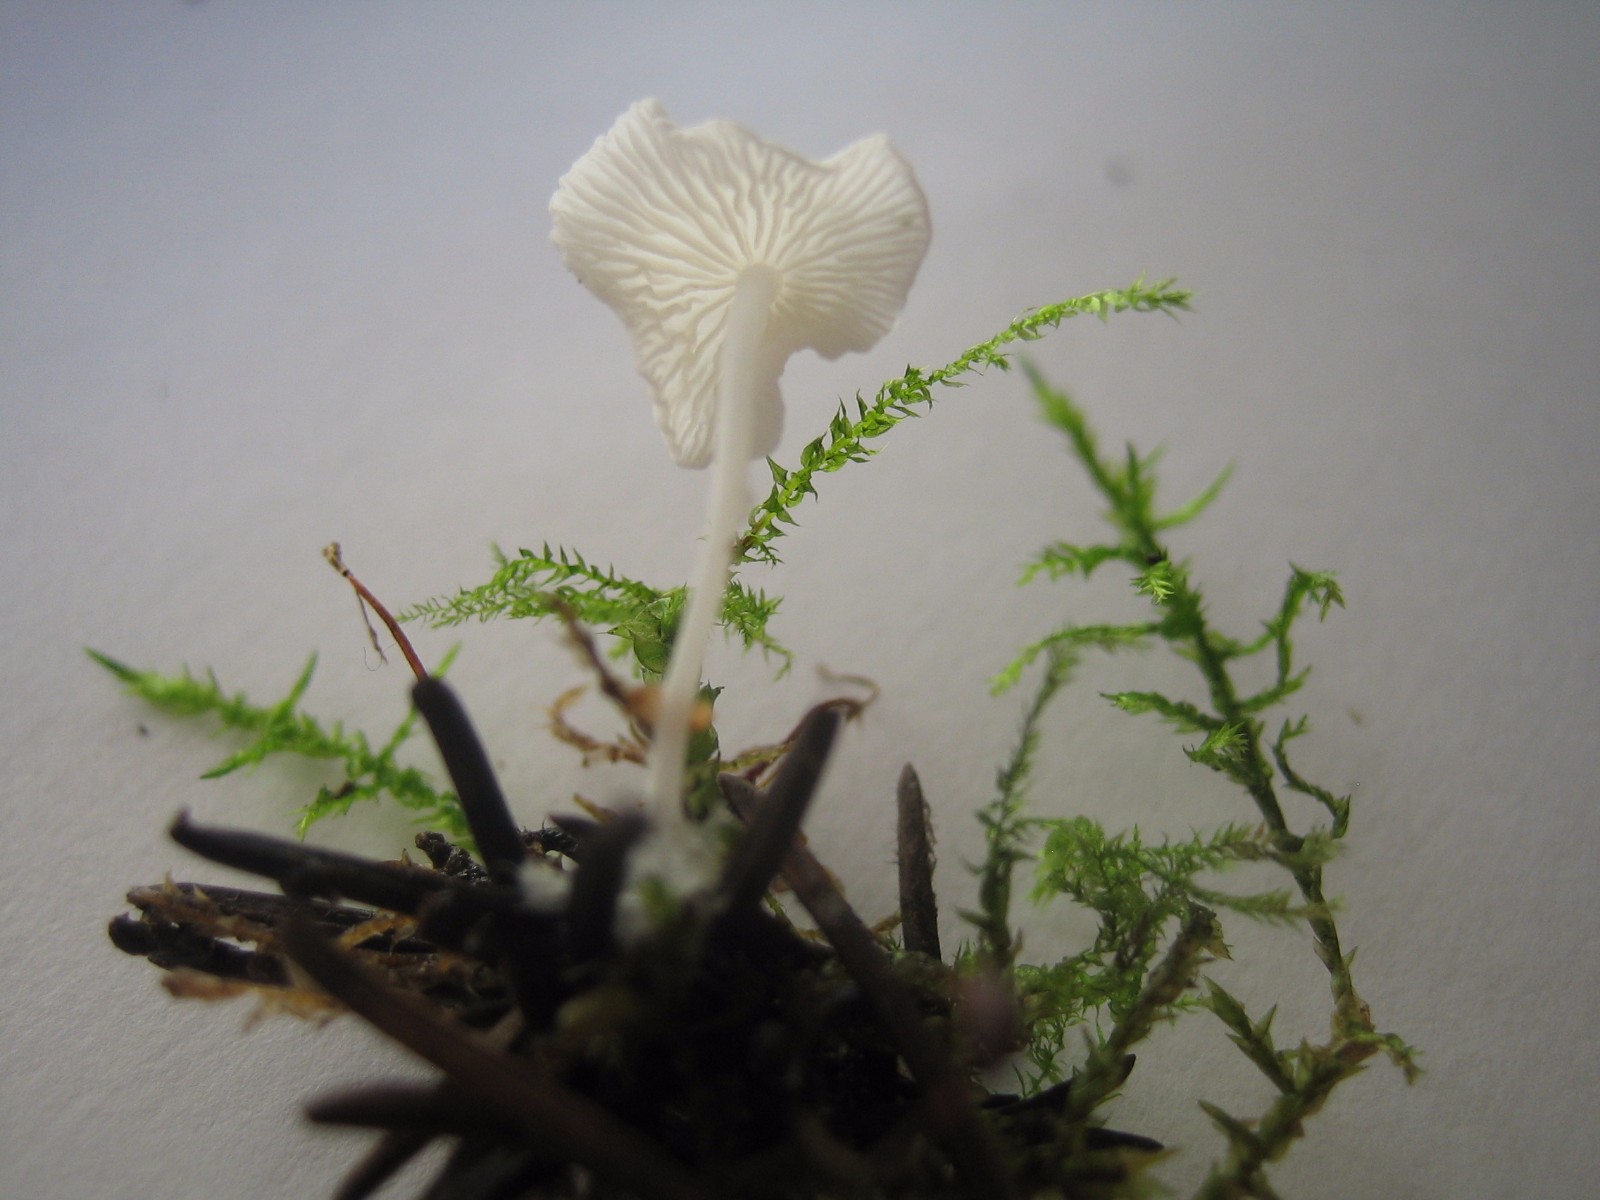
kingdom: Fungi
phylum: Basidiomycota
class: Agaricomycetes
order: Agaricales
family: Mycenaceae
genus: Hemimycena
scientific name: Hemimycena lactea
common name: mælkehvid huesvamp
